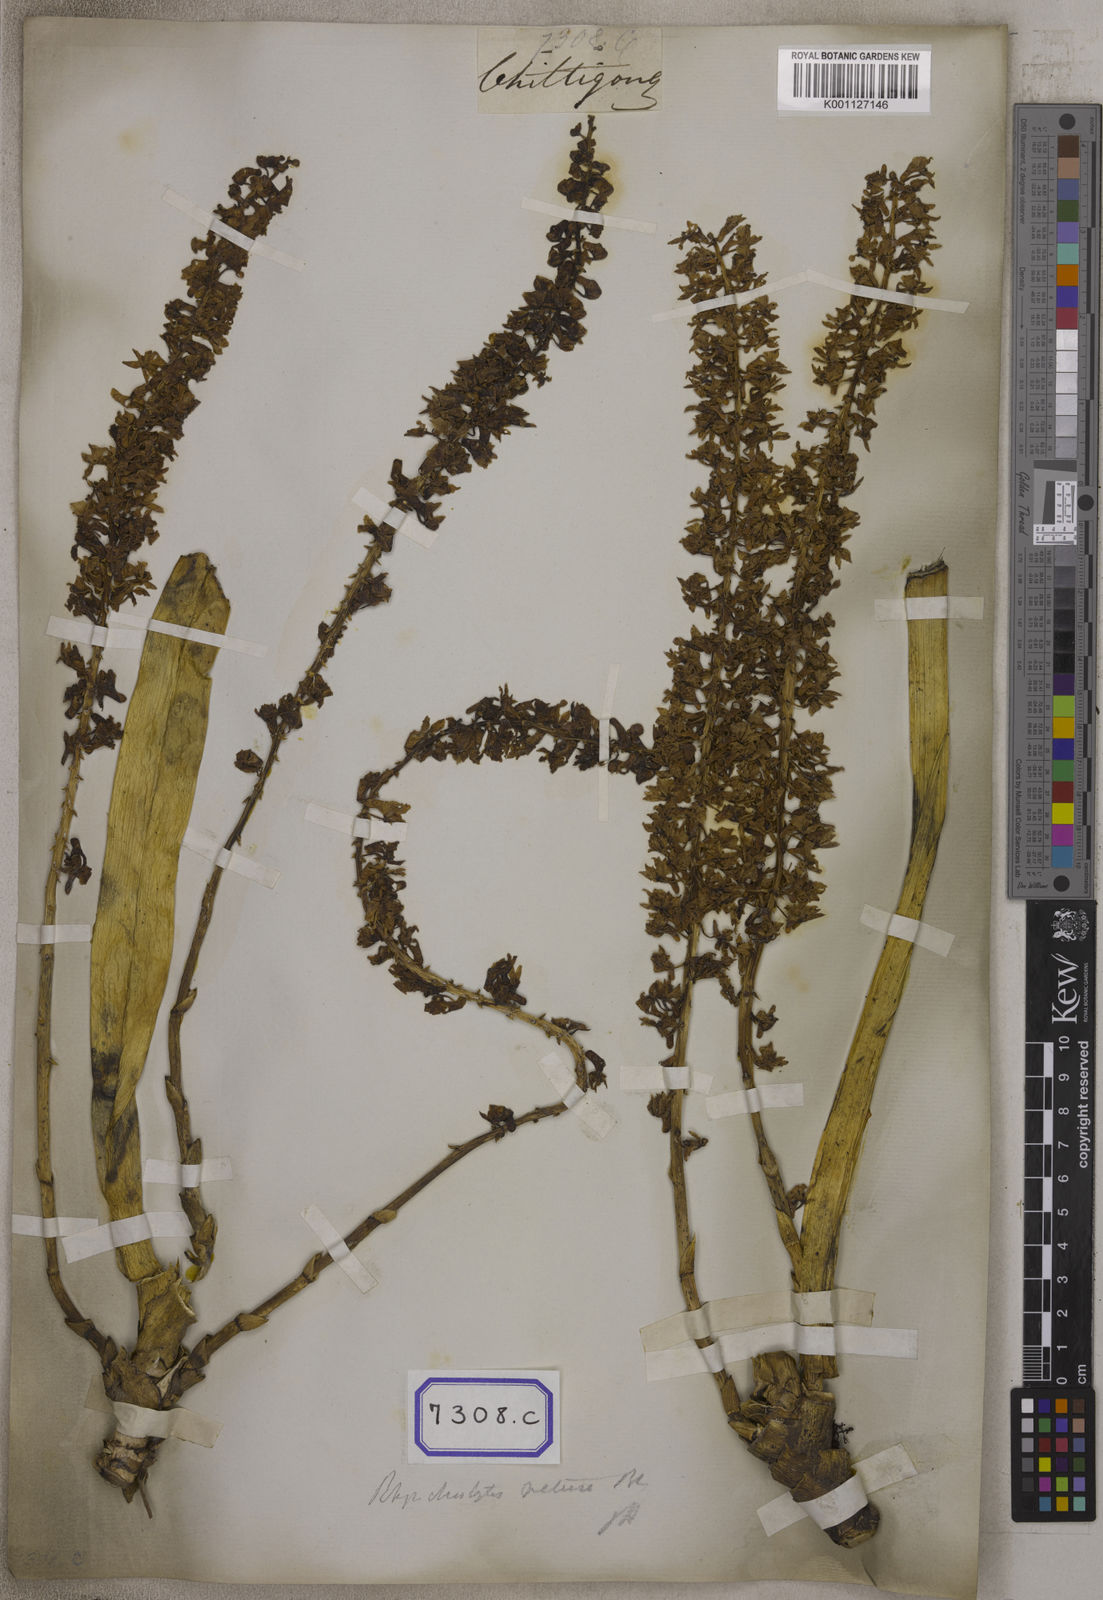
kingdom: Plantae
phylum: Tracheophyta
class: Liliopsida
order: Asparagales
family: Orchidaceae
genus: Saccolabium
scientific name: Saccolabium
